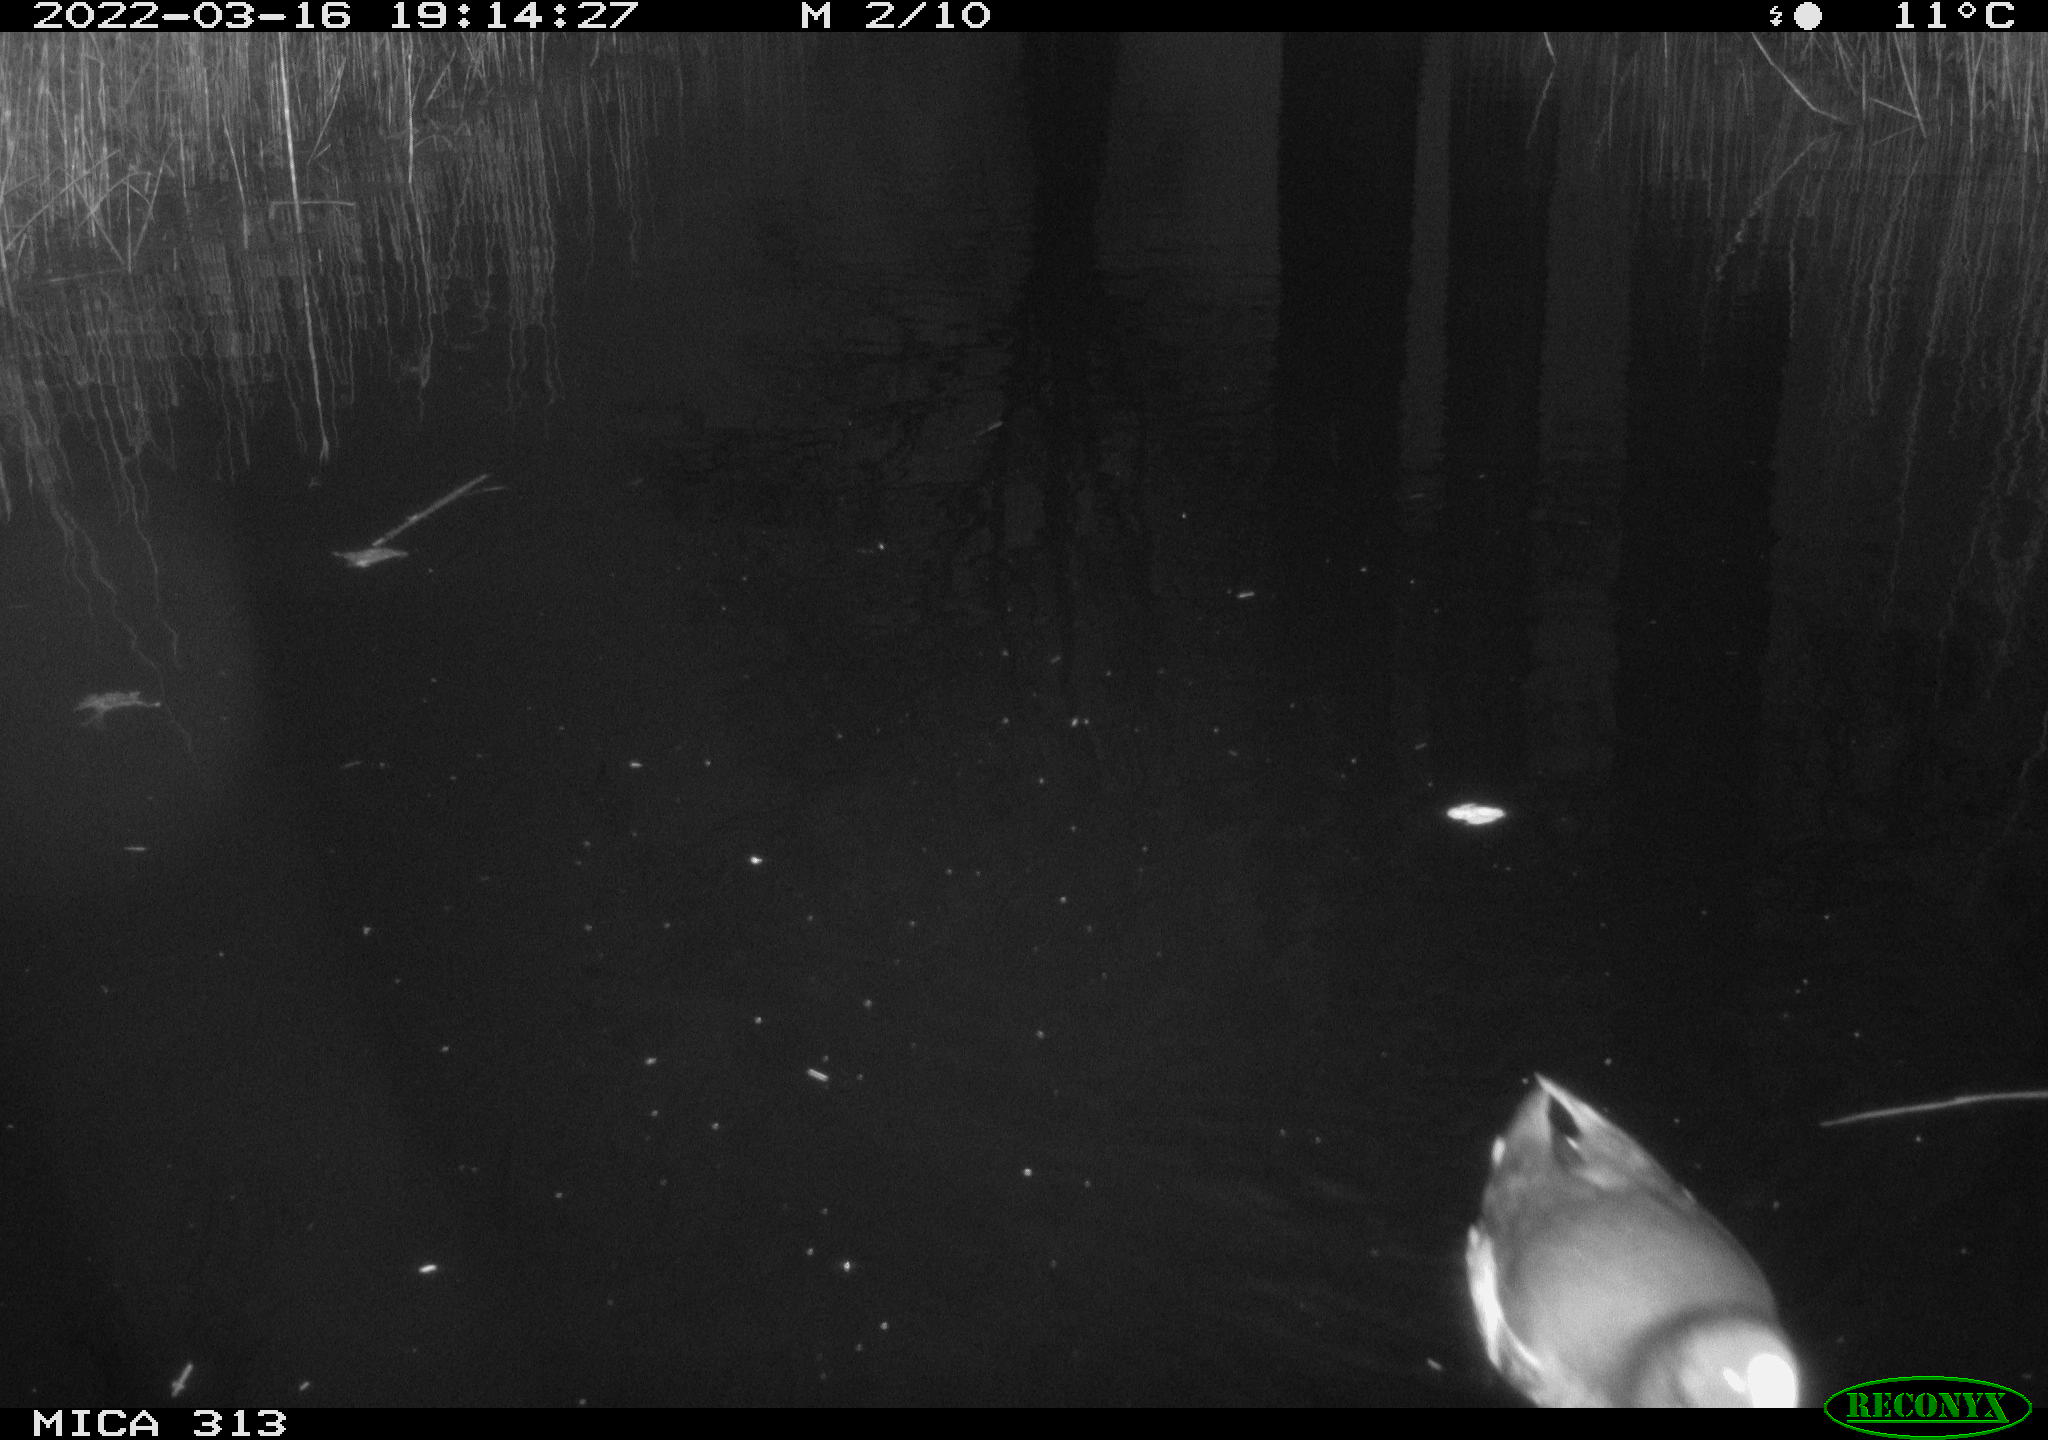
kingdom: Animalia
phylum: Chordata
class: Aves
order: Gruiformes
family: Rallidae
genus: Gallinula
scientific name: Gallinula chloropus
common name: Common moorhen
